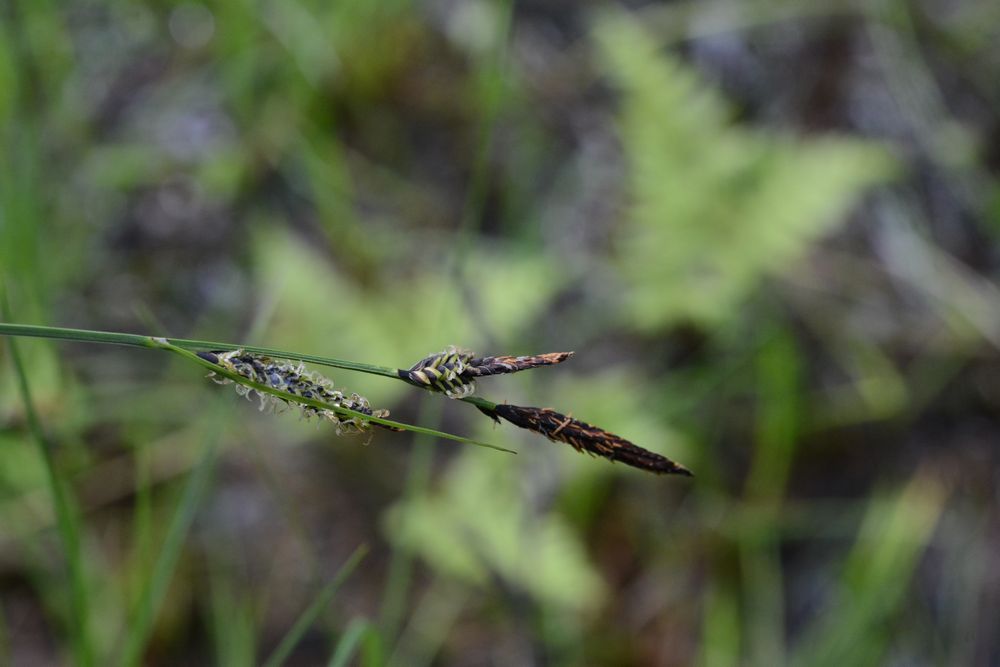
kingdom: Plantae
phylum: Tracheophyta
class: Liliopsida
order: Poales
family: Cyperaceae
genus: Carex
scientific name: Carex nigra
